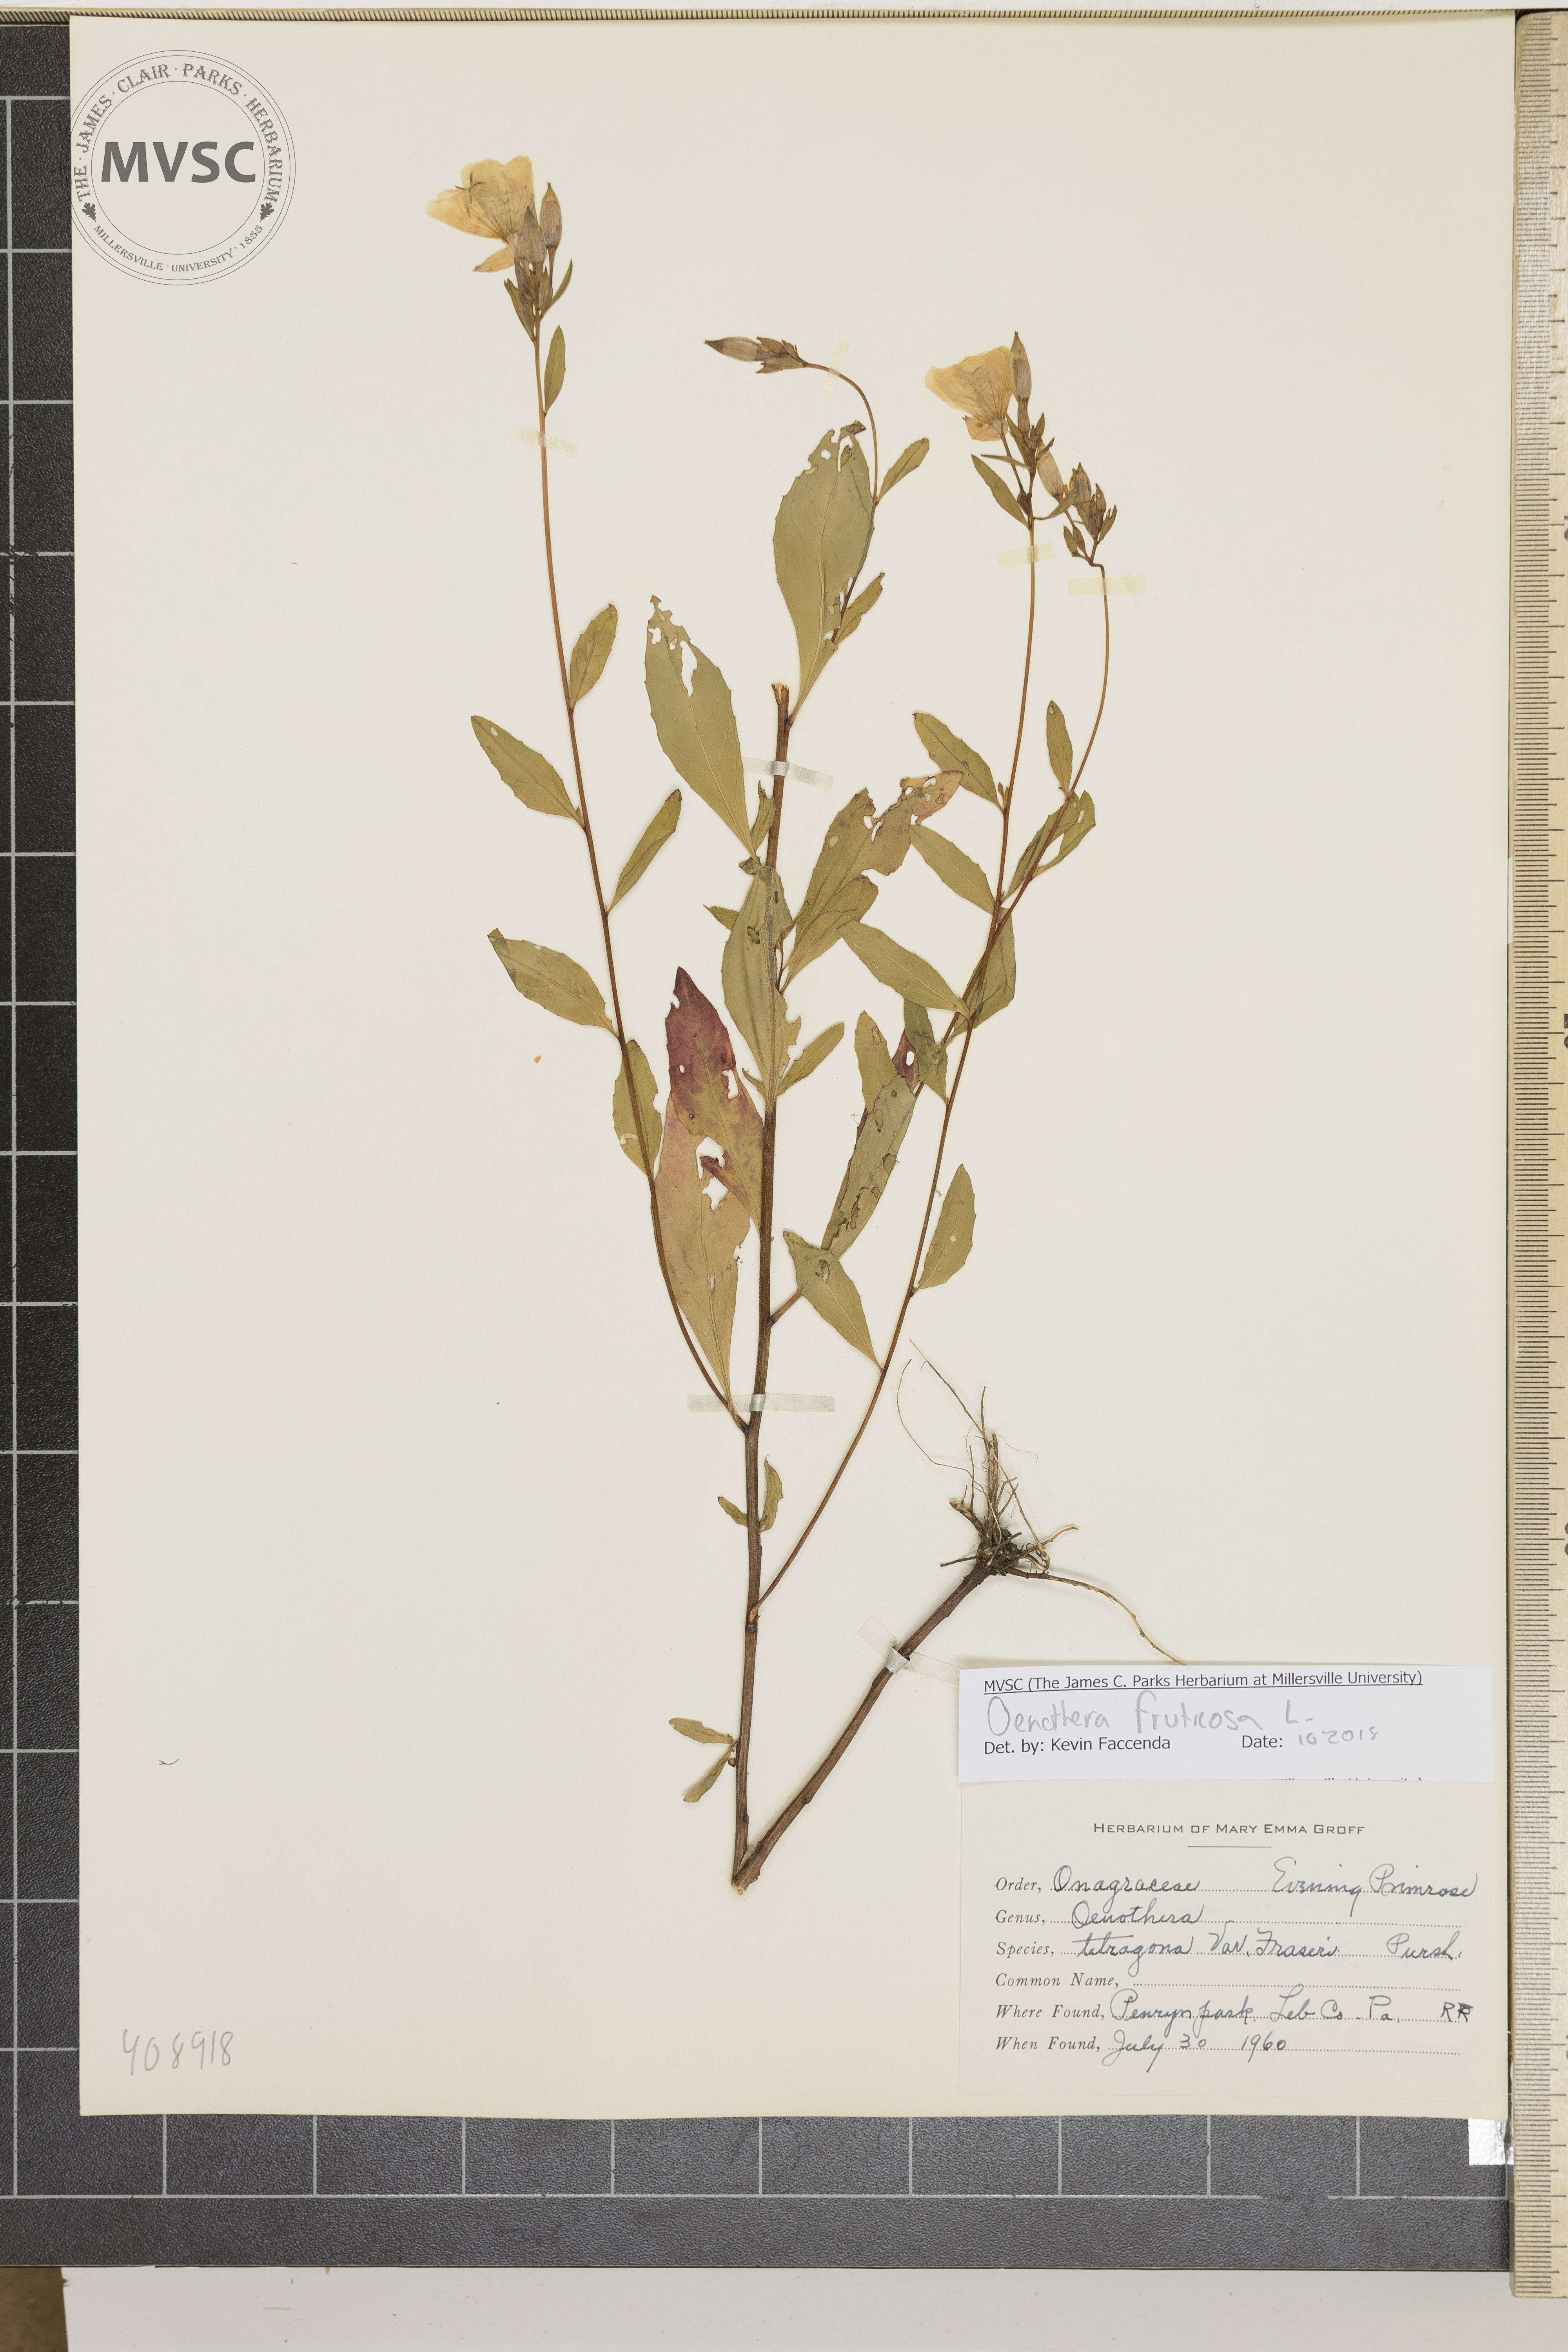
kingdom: Plantae
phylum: Tracheophyta
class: Magnoliopsida
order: Myrtales
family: Onagraceae
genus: Oenothera
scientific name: Oenothera fruticosa
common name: Southern sundrops
